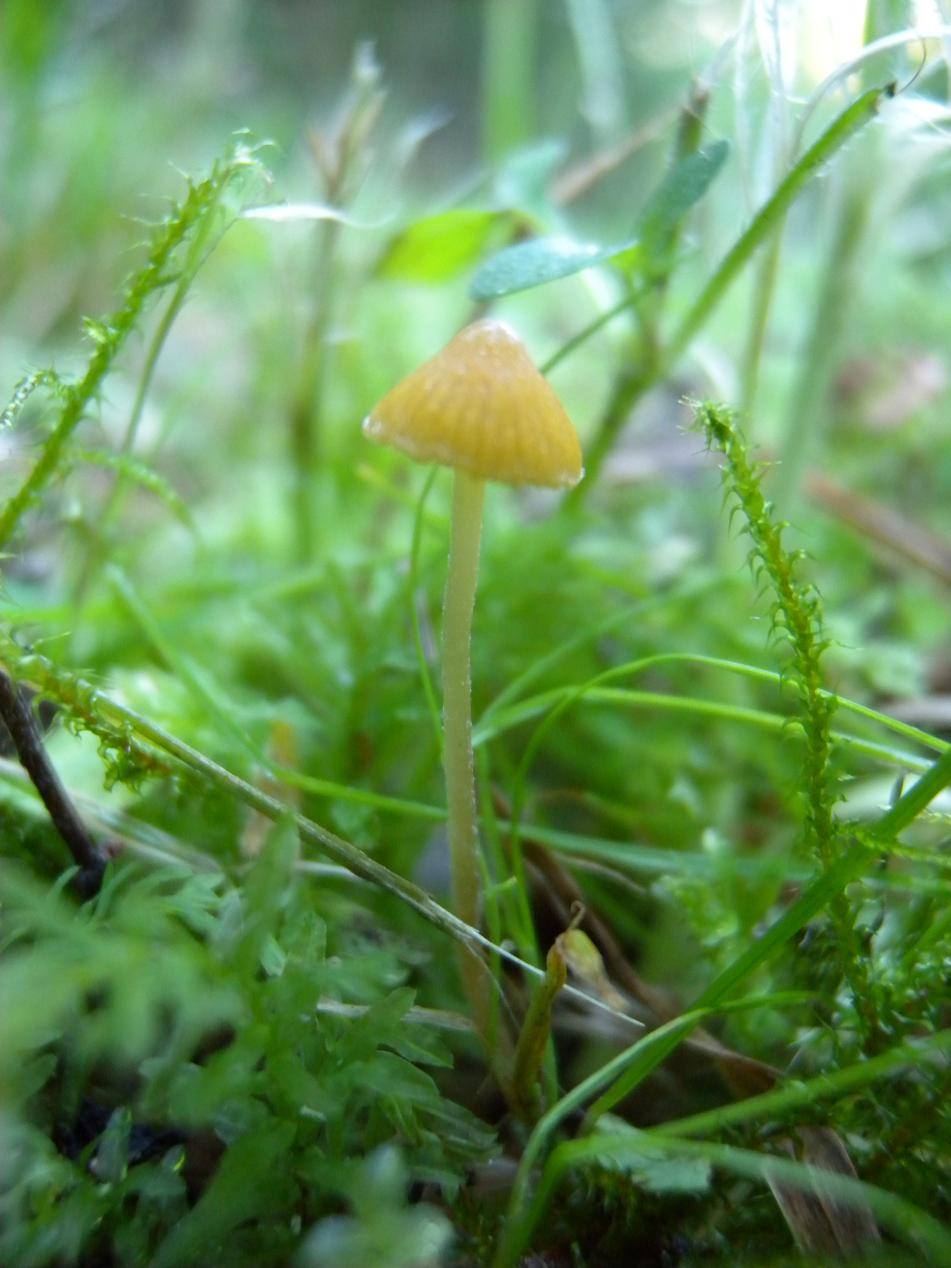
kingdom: Fungi
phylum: Basidiomycota
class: Agaricomycetes
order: Agaricales
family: Hymenogastraceae
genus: Galerina
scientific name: Galerina clavata
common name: kær-hjelmhat
